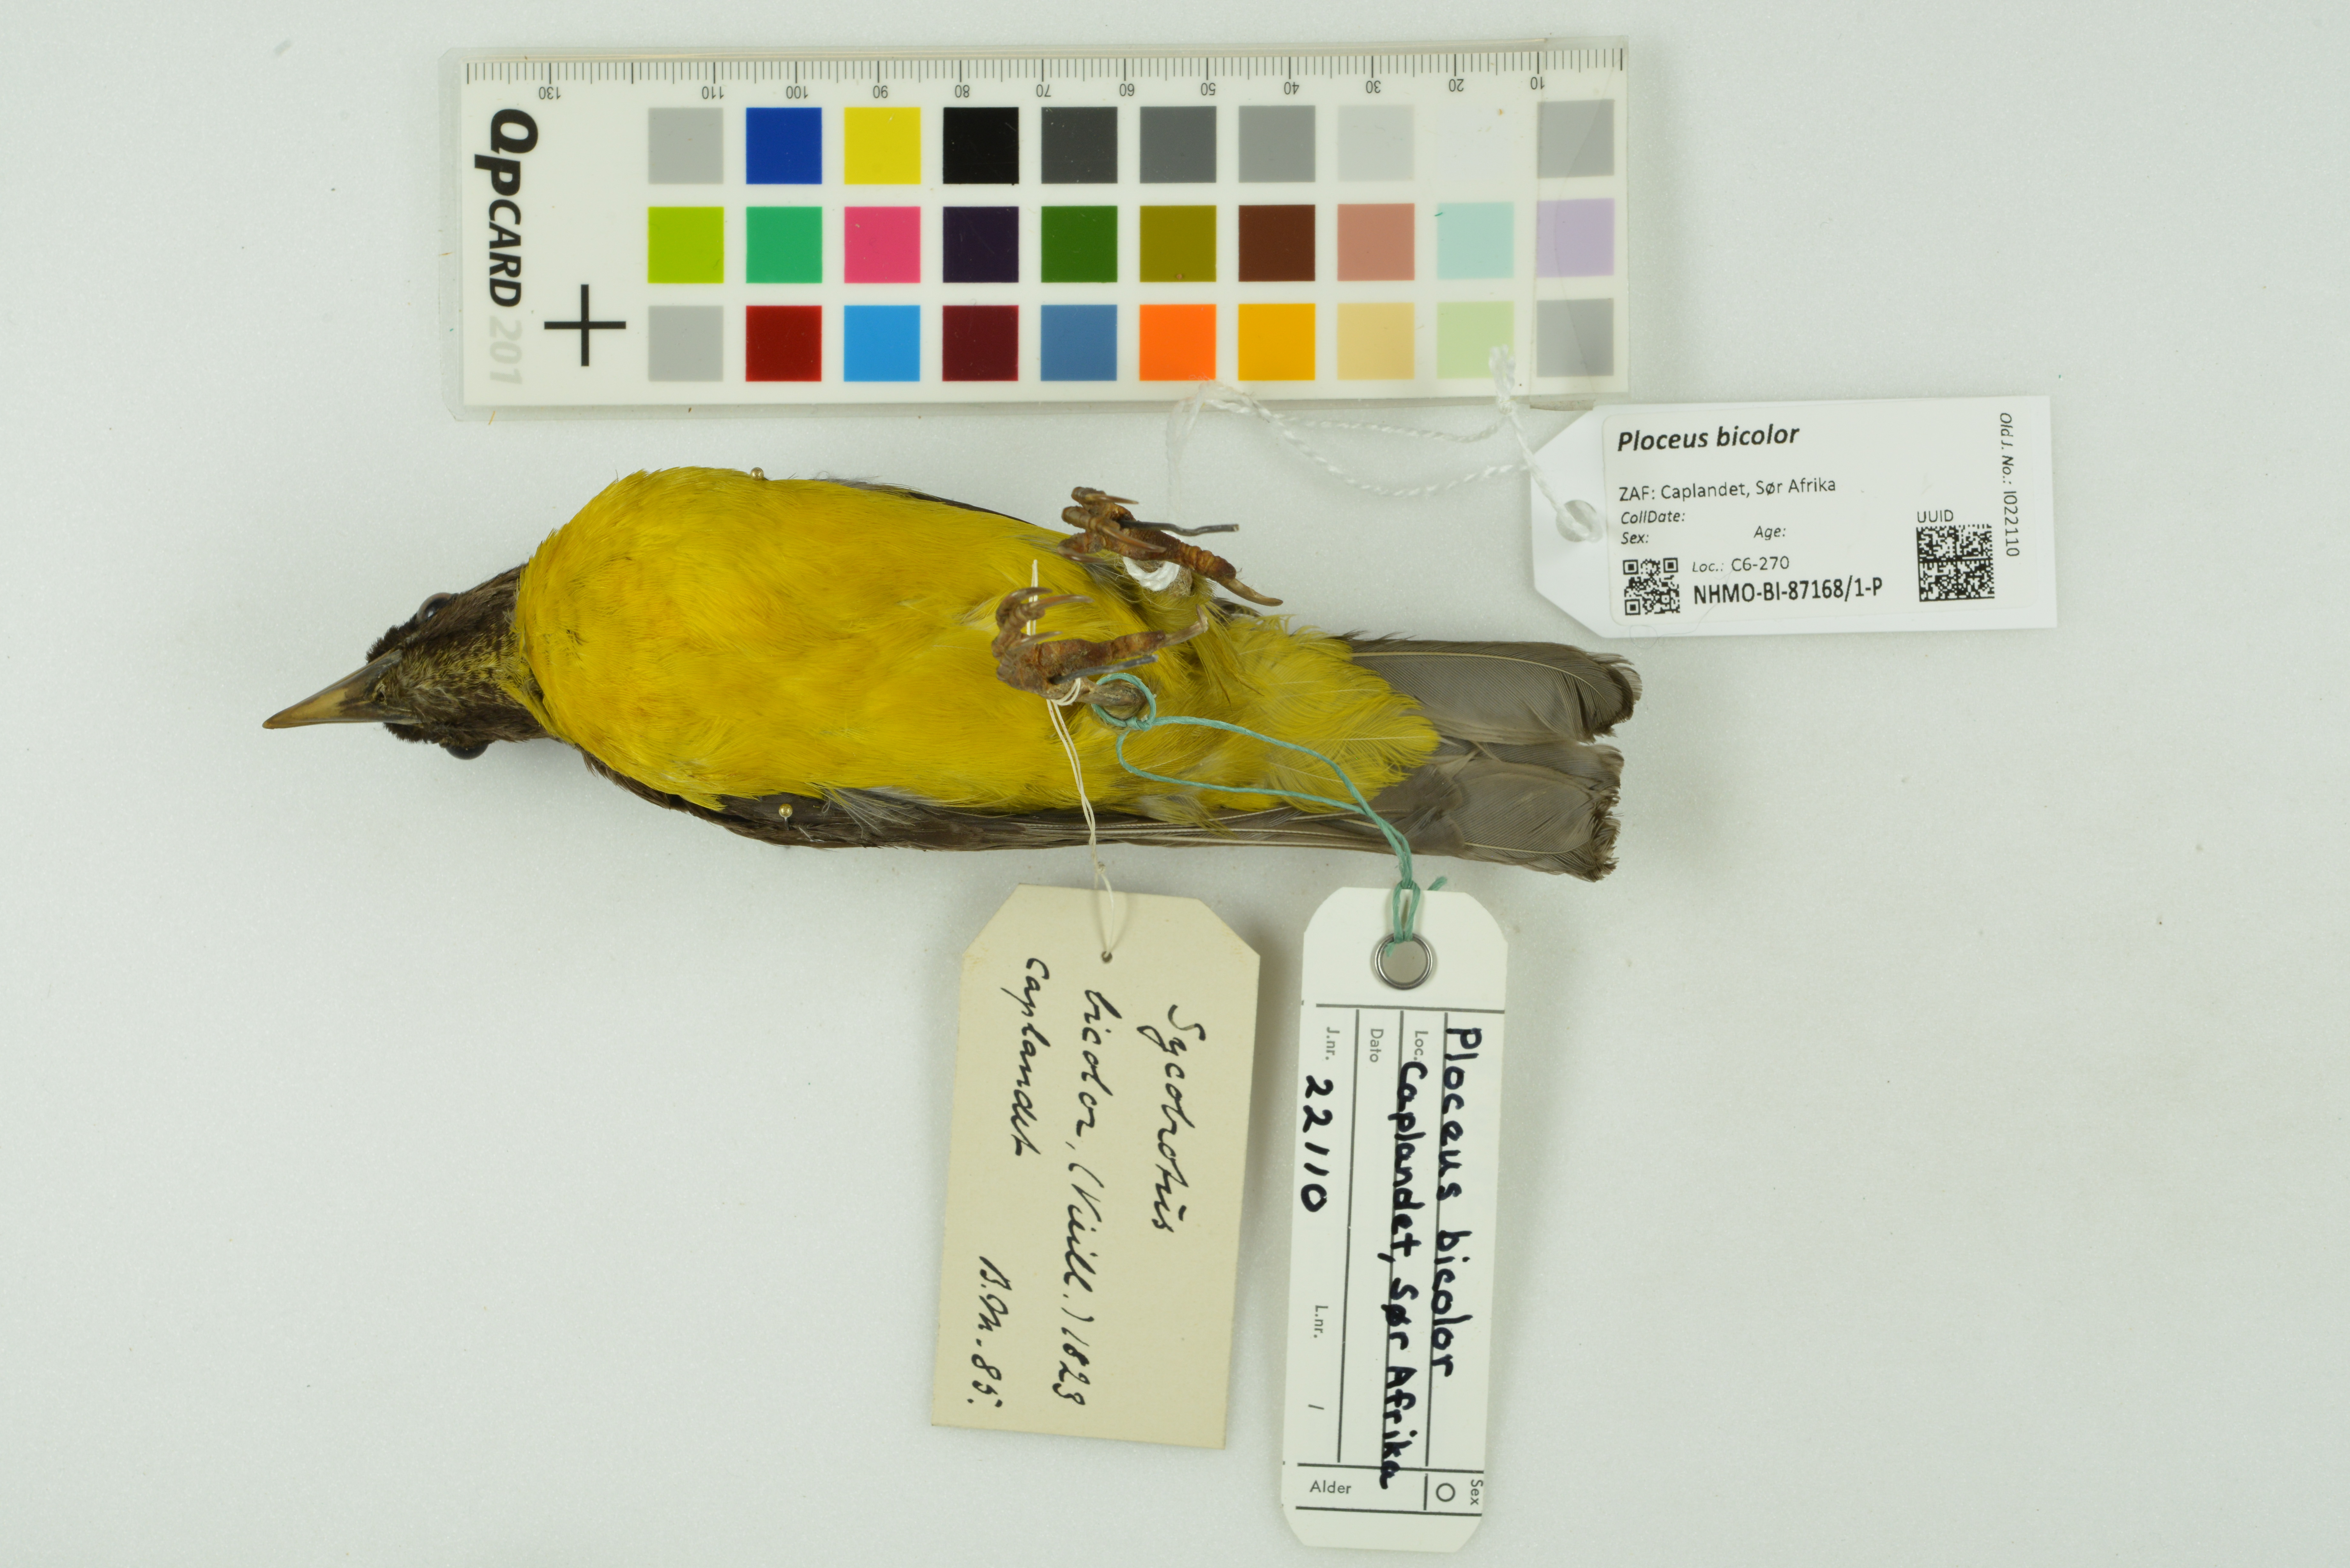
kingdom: Animalia
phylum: Chordata
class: Aves
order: Passeriformes
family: Ploceidae
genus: Ploceus
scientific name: Ploceus bicolor
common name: Dark-backed weaver
